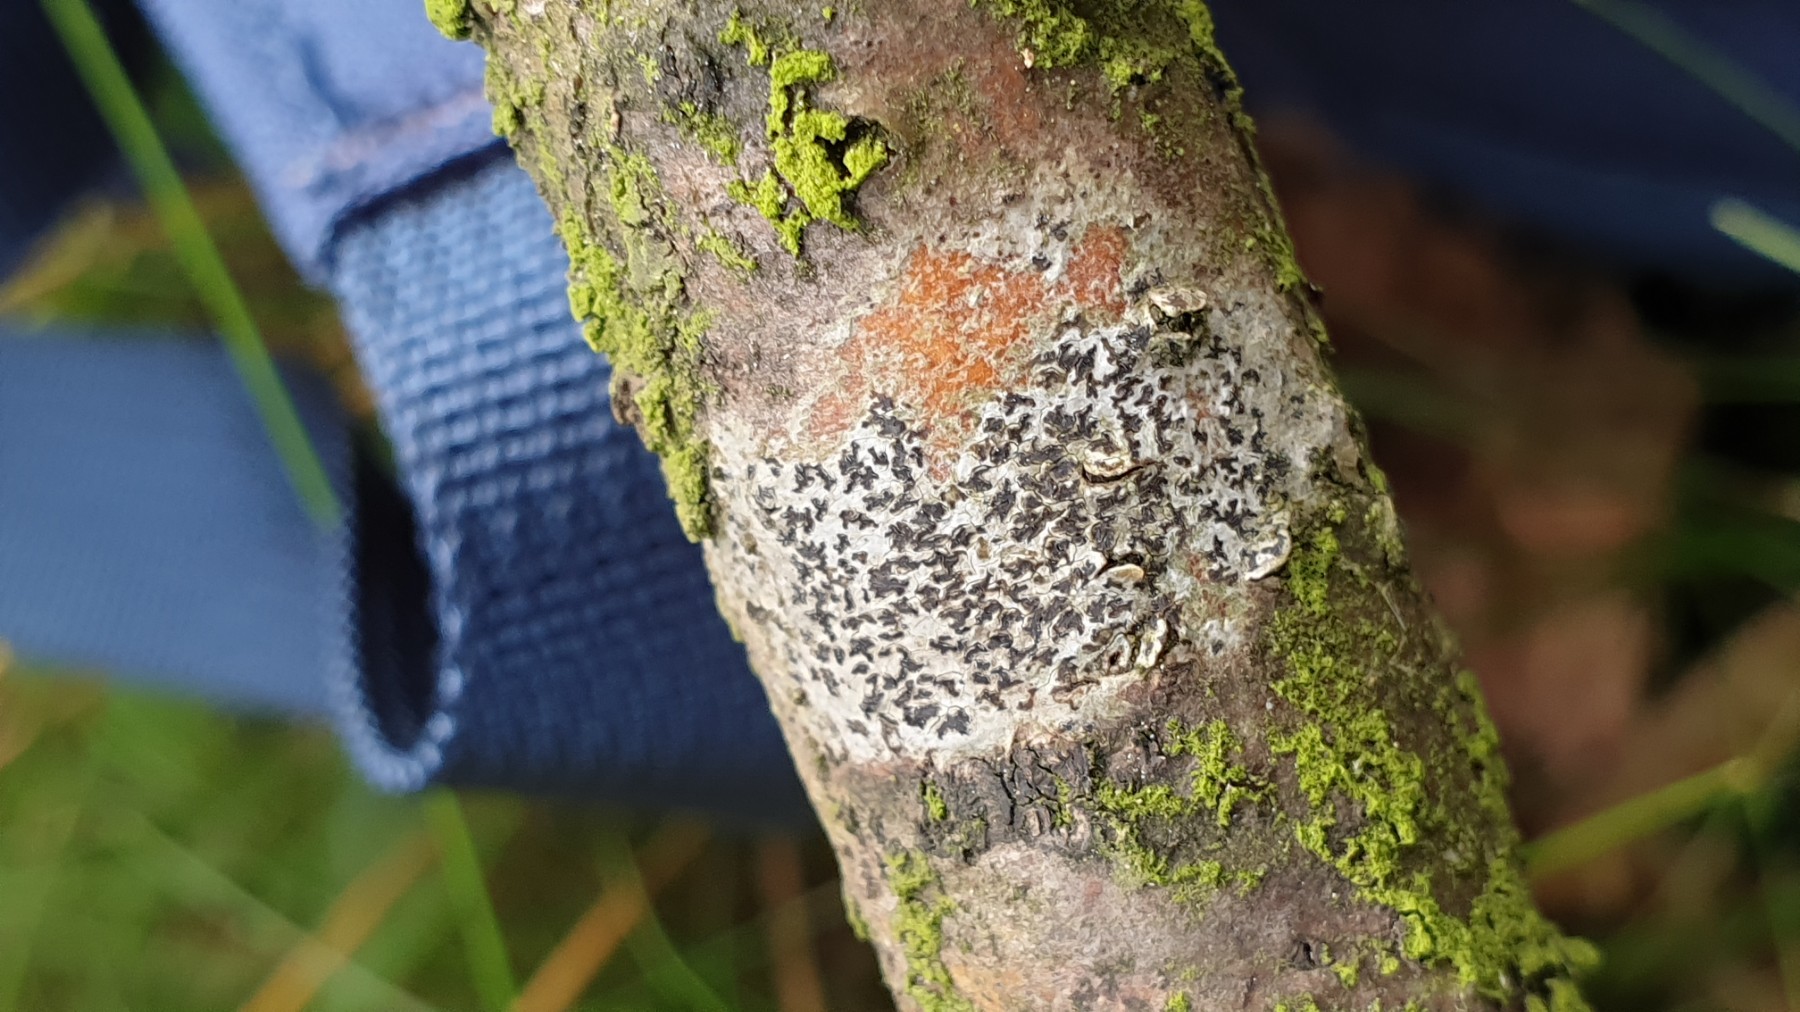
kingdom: Fungi
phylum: Ascomycota
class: Arthoniomycetes
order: Arthoniales
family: Arthoniaceae
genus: Arthonia
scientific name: Arthonia radiata
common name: stjerne-pletlav
